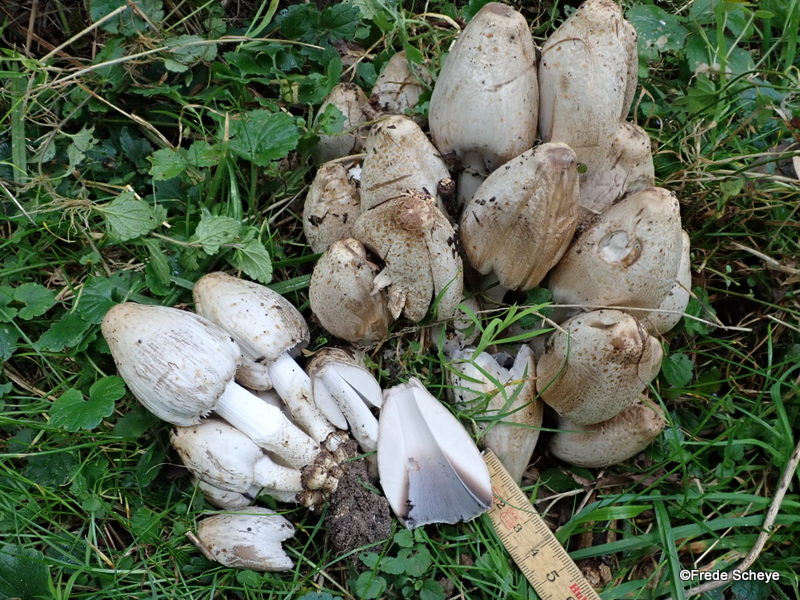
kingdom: Fungi
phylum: Basidiomycota
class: Agaricomycetes
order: Agaricales
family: Psathyrellaceae
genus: Coprinopsis
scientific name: Coprinopsis atramentaria
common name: almindelig blækhat
